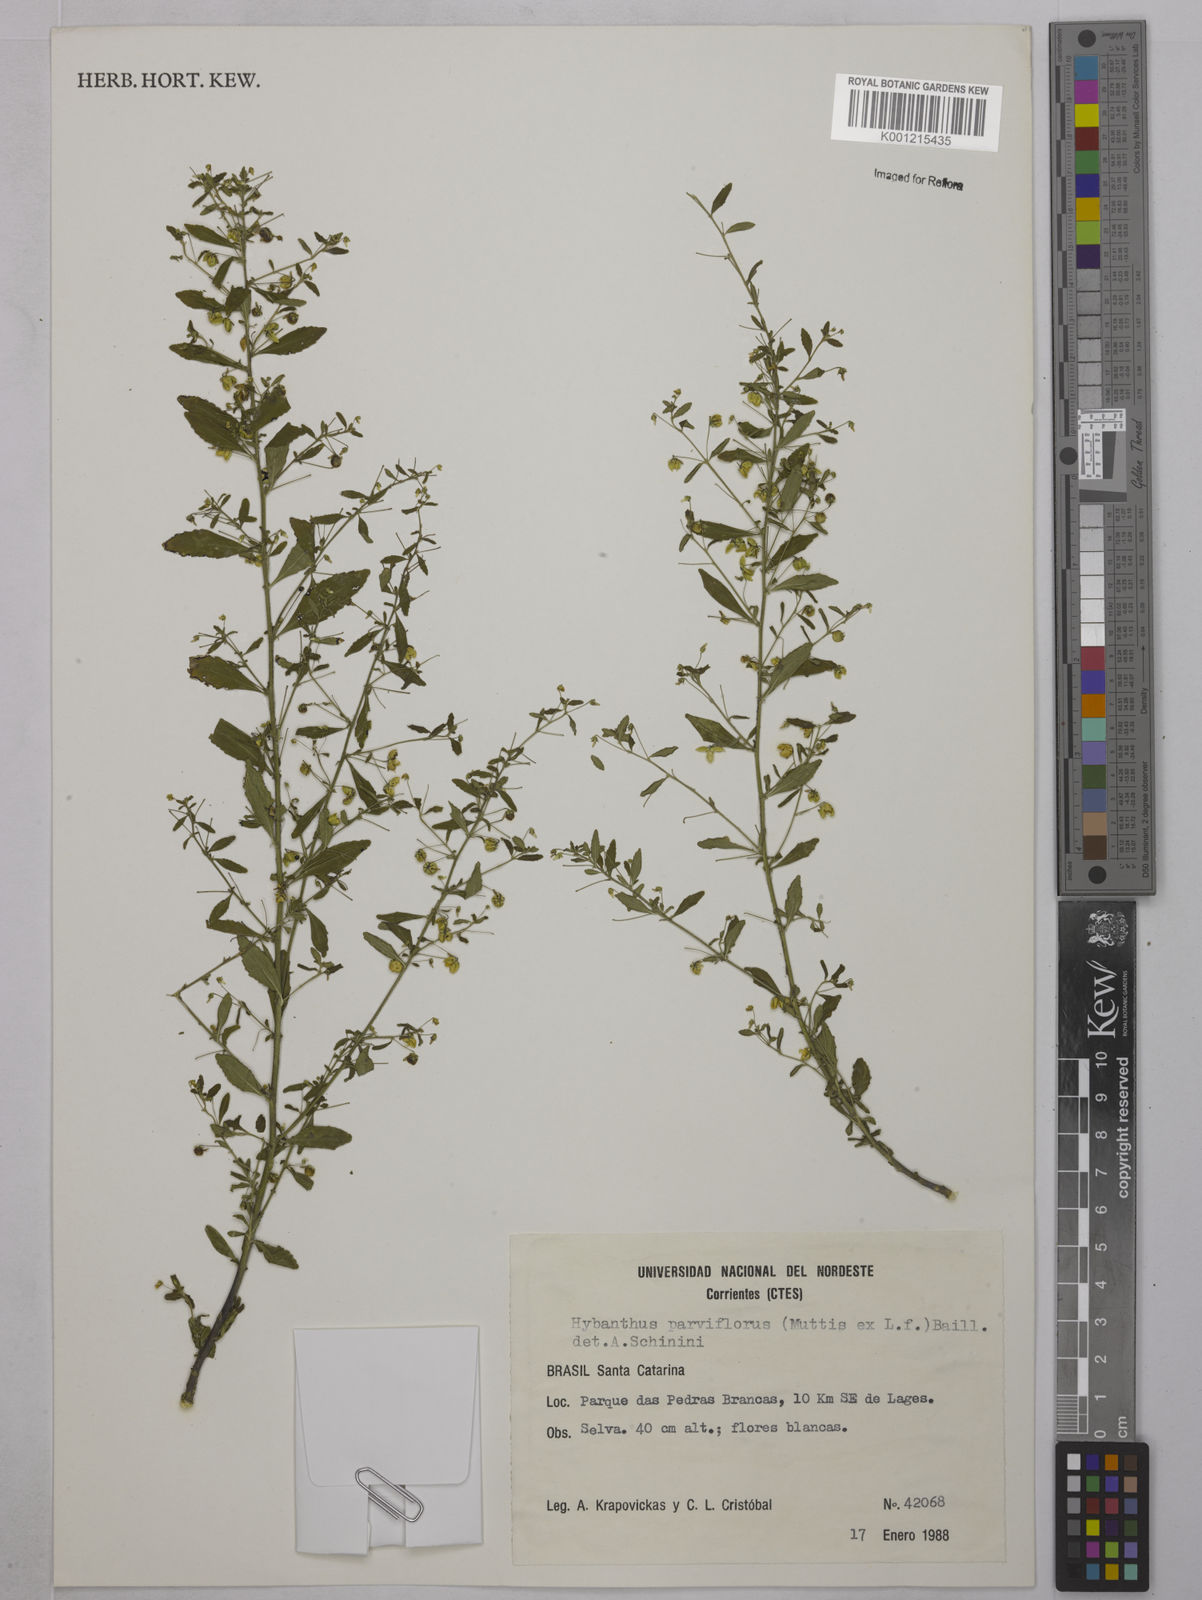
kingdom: Plantae
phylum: Tracheophyta
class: Magnoliopsida
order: Malpighiales
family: Violaceae
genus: Pombalia
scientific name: Pombalia parviflora
